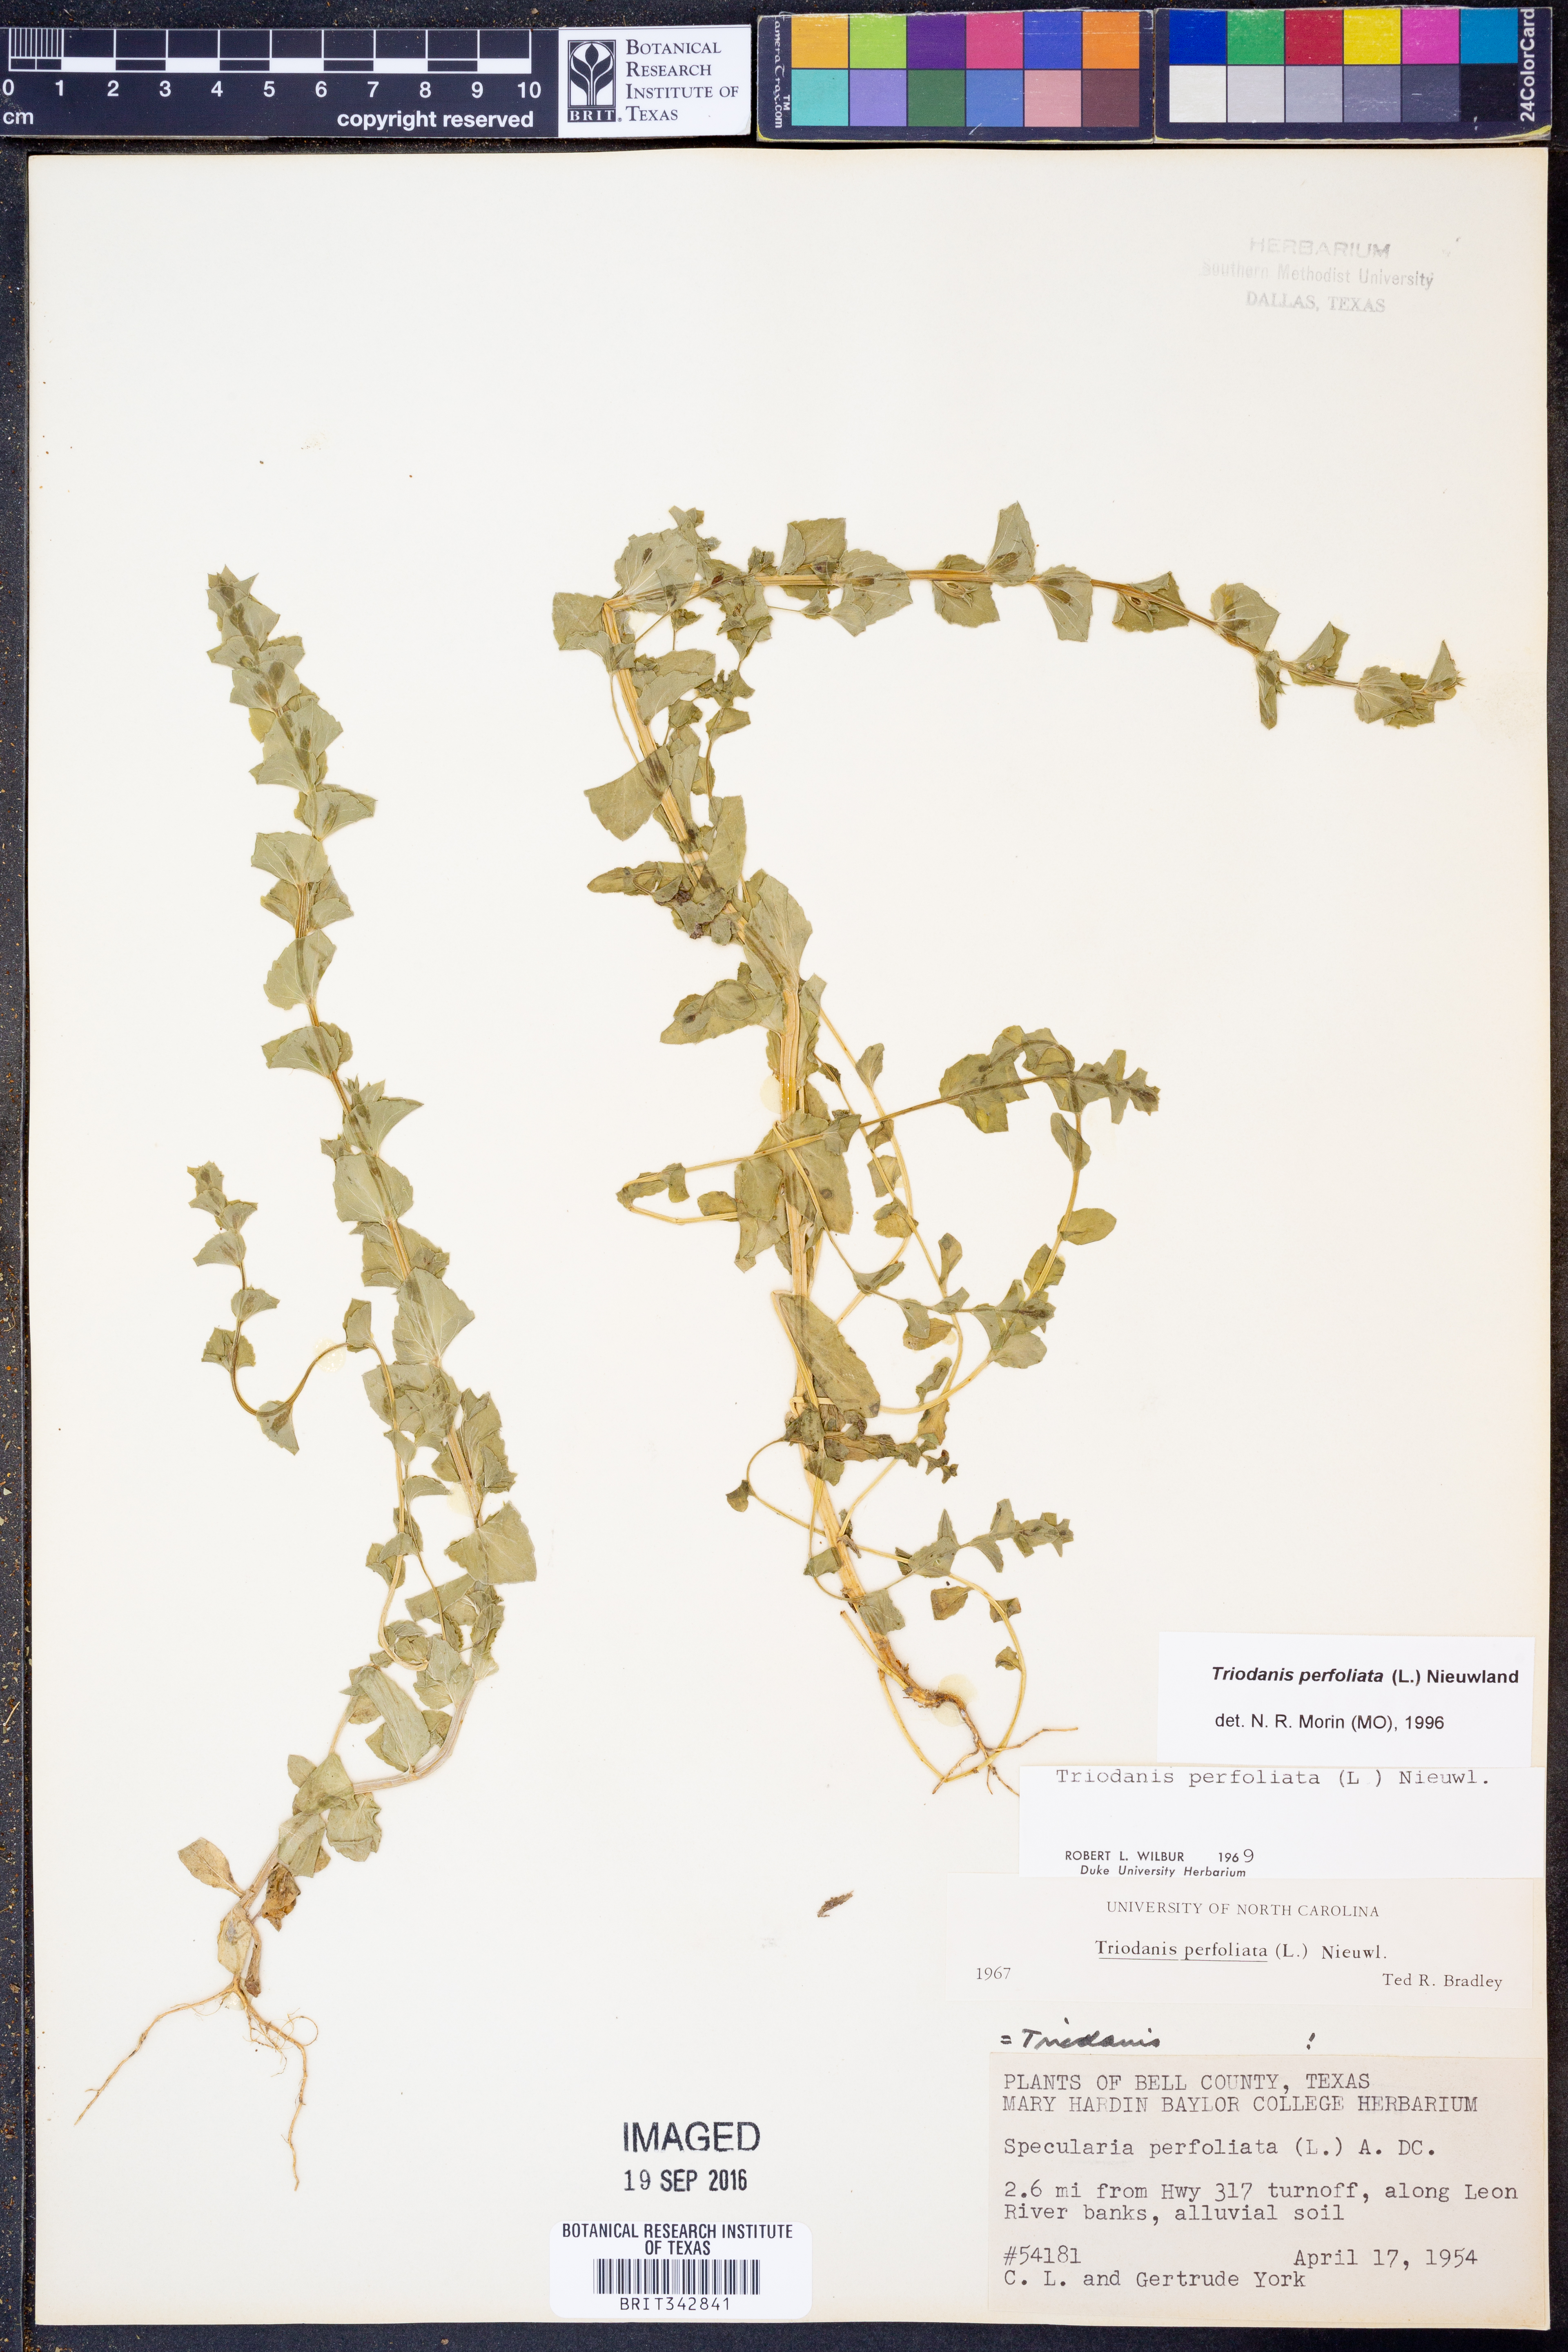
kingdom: Plantae
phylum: Tracheophyta
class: Magnoliopsida
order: Asterales
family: Campanulaceae
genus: Triodanis
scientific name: Triodanis perfoliata
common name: Clasping venus' looking-glass
